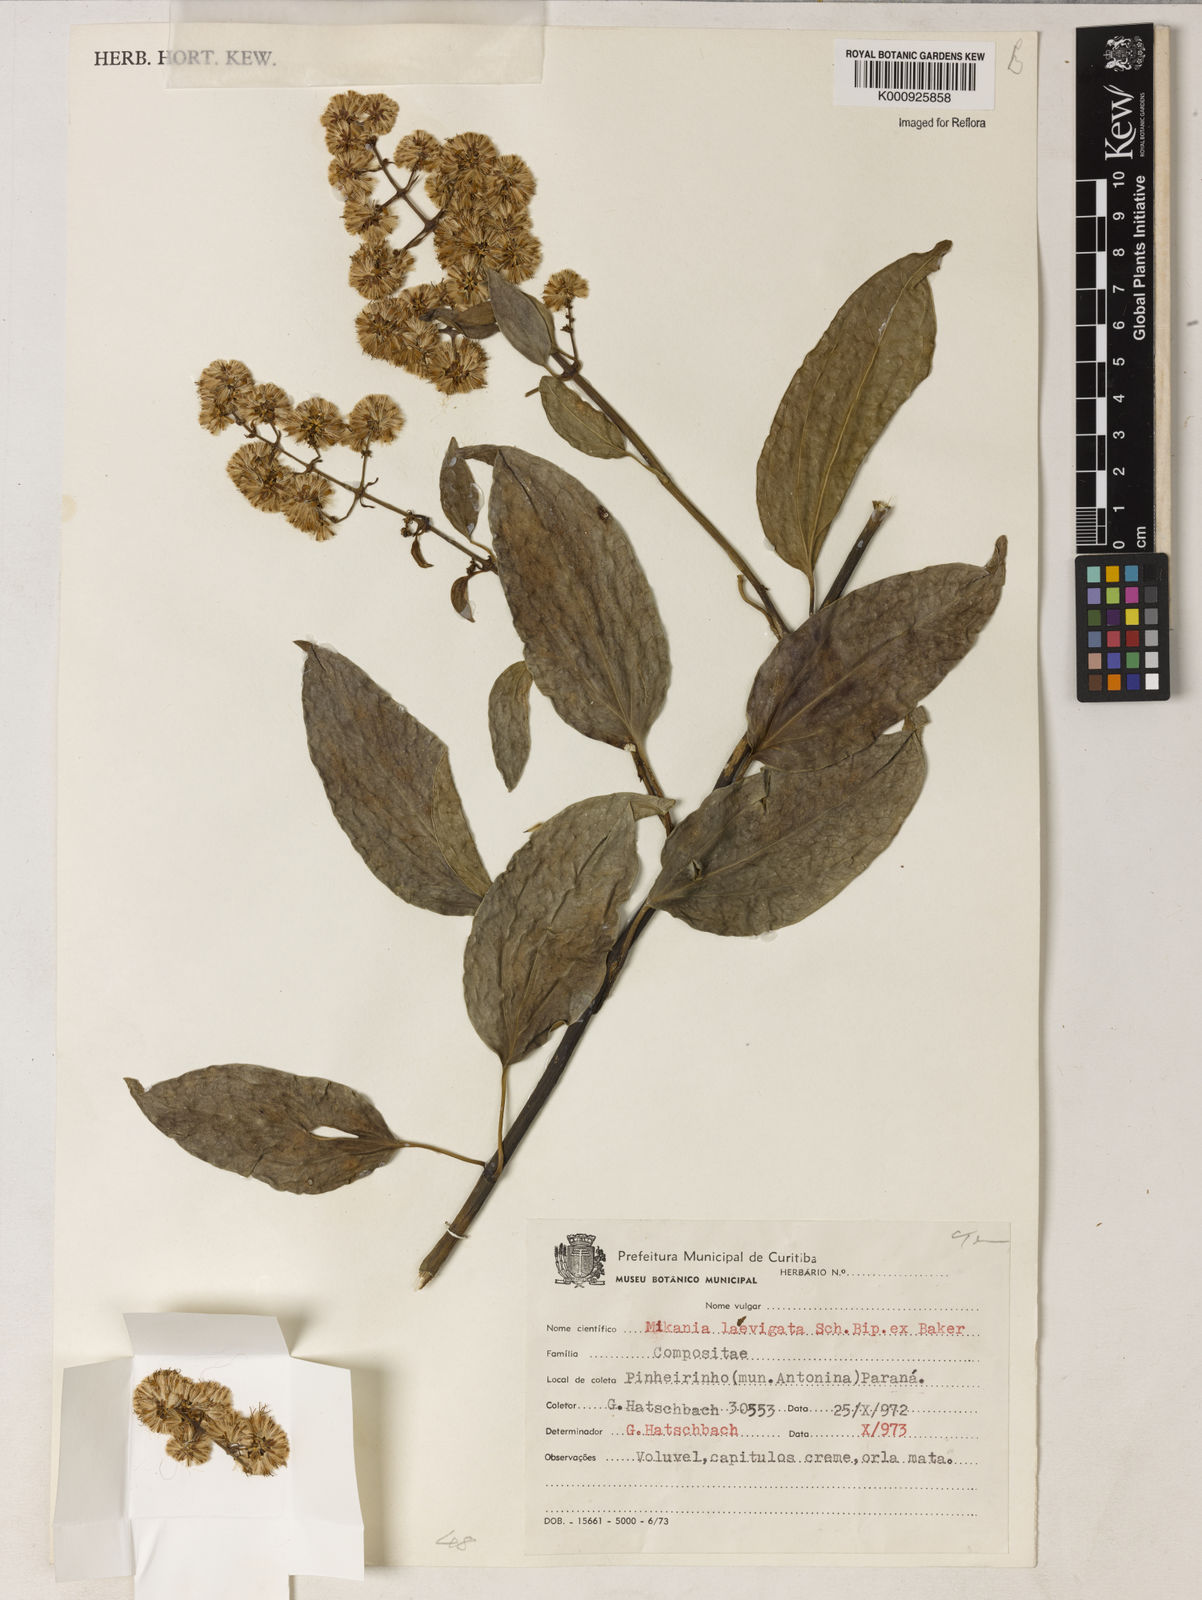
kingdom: Plantae
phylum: Tracheophyta
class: Magnoliopsida
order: Asterales
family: Asteraceae
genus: Mikania
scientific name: Mikania laevigata
